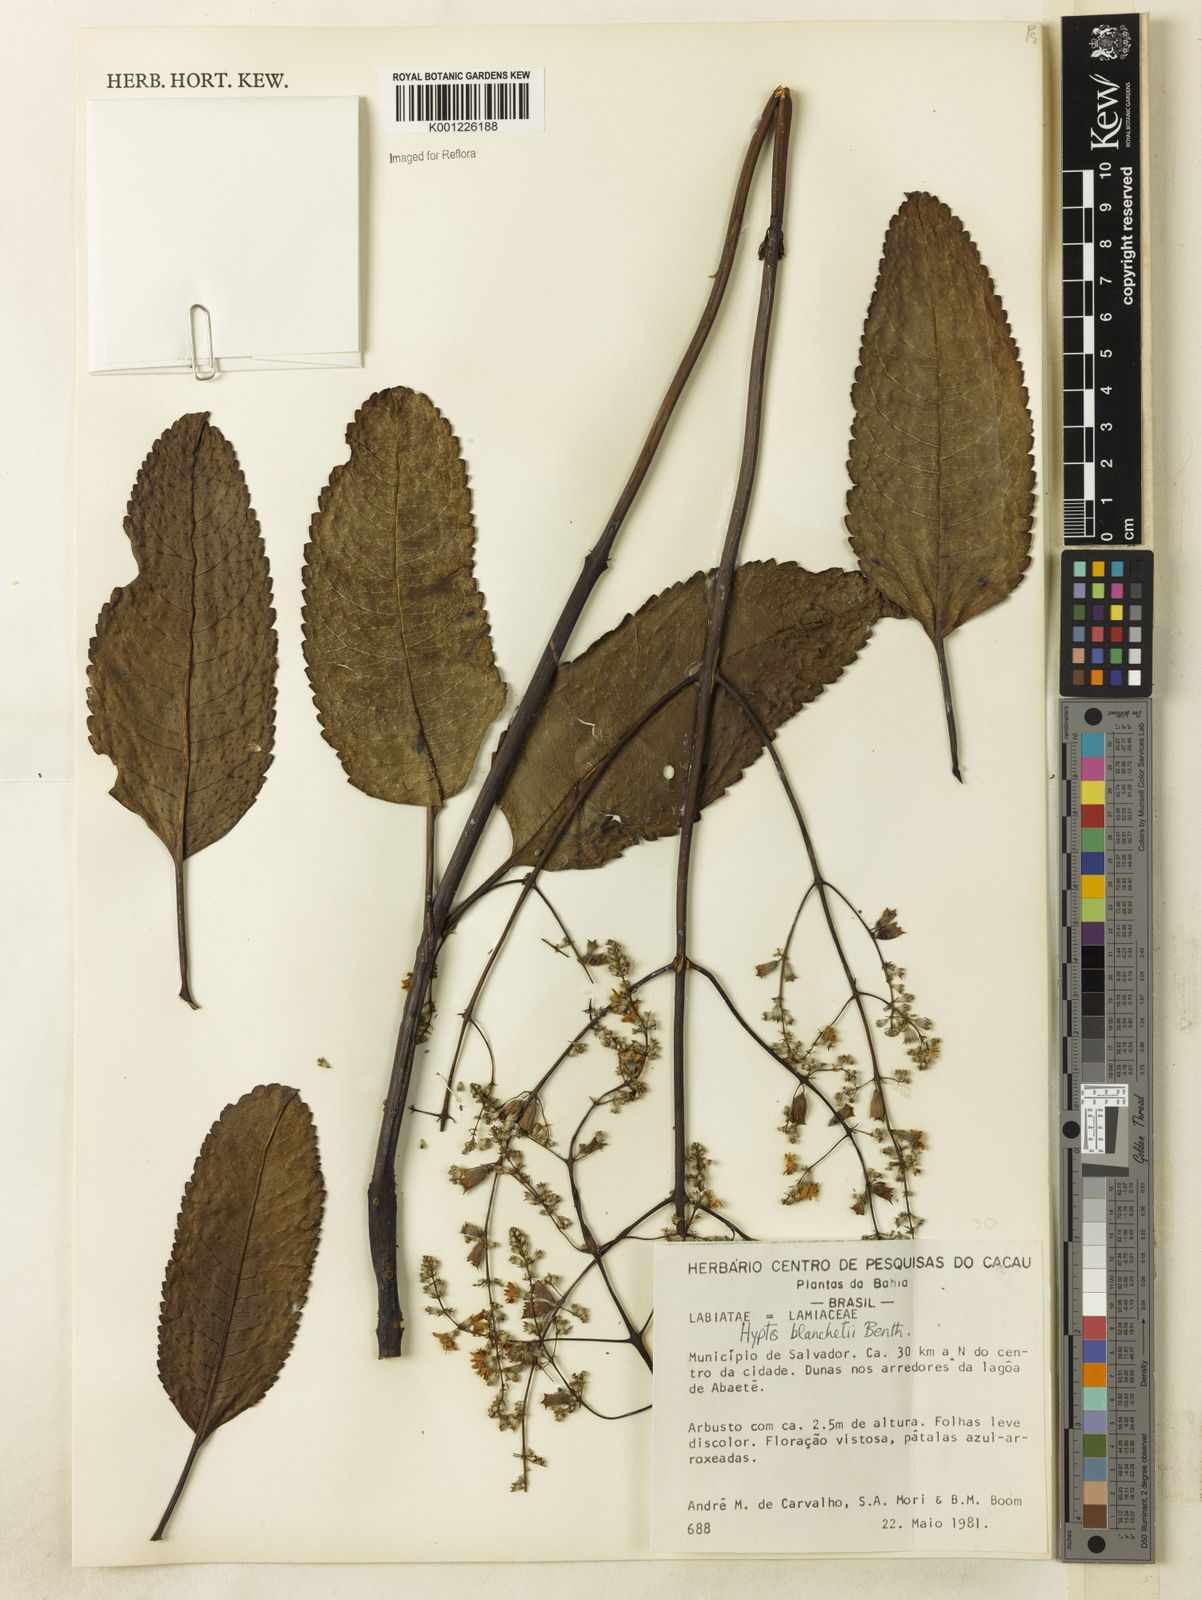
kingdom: Plantae
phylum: Tracheophyta
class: Magnoliopsida
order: Lamiales
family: Lamiaceae
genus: Eriope
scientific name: Eriope blanchetii
